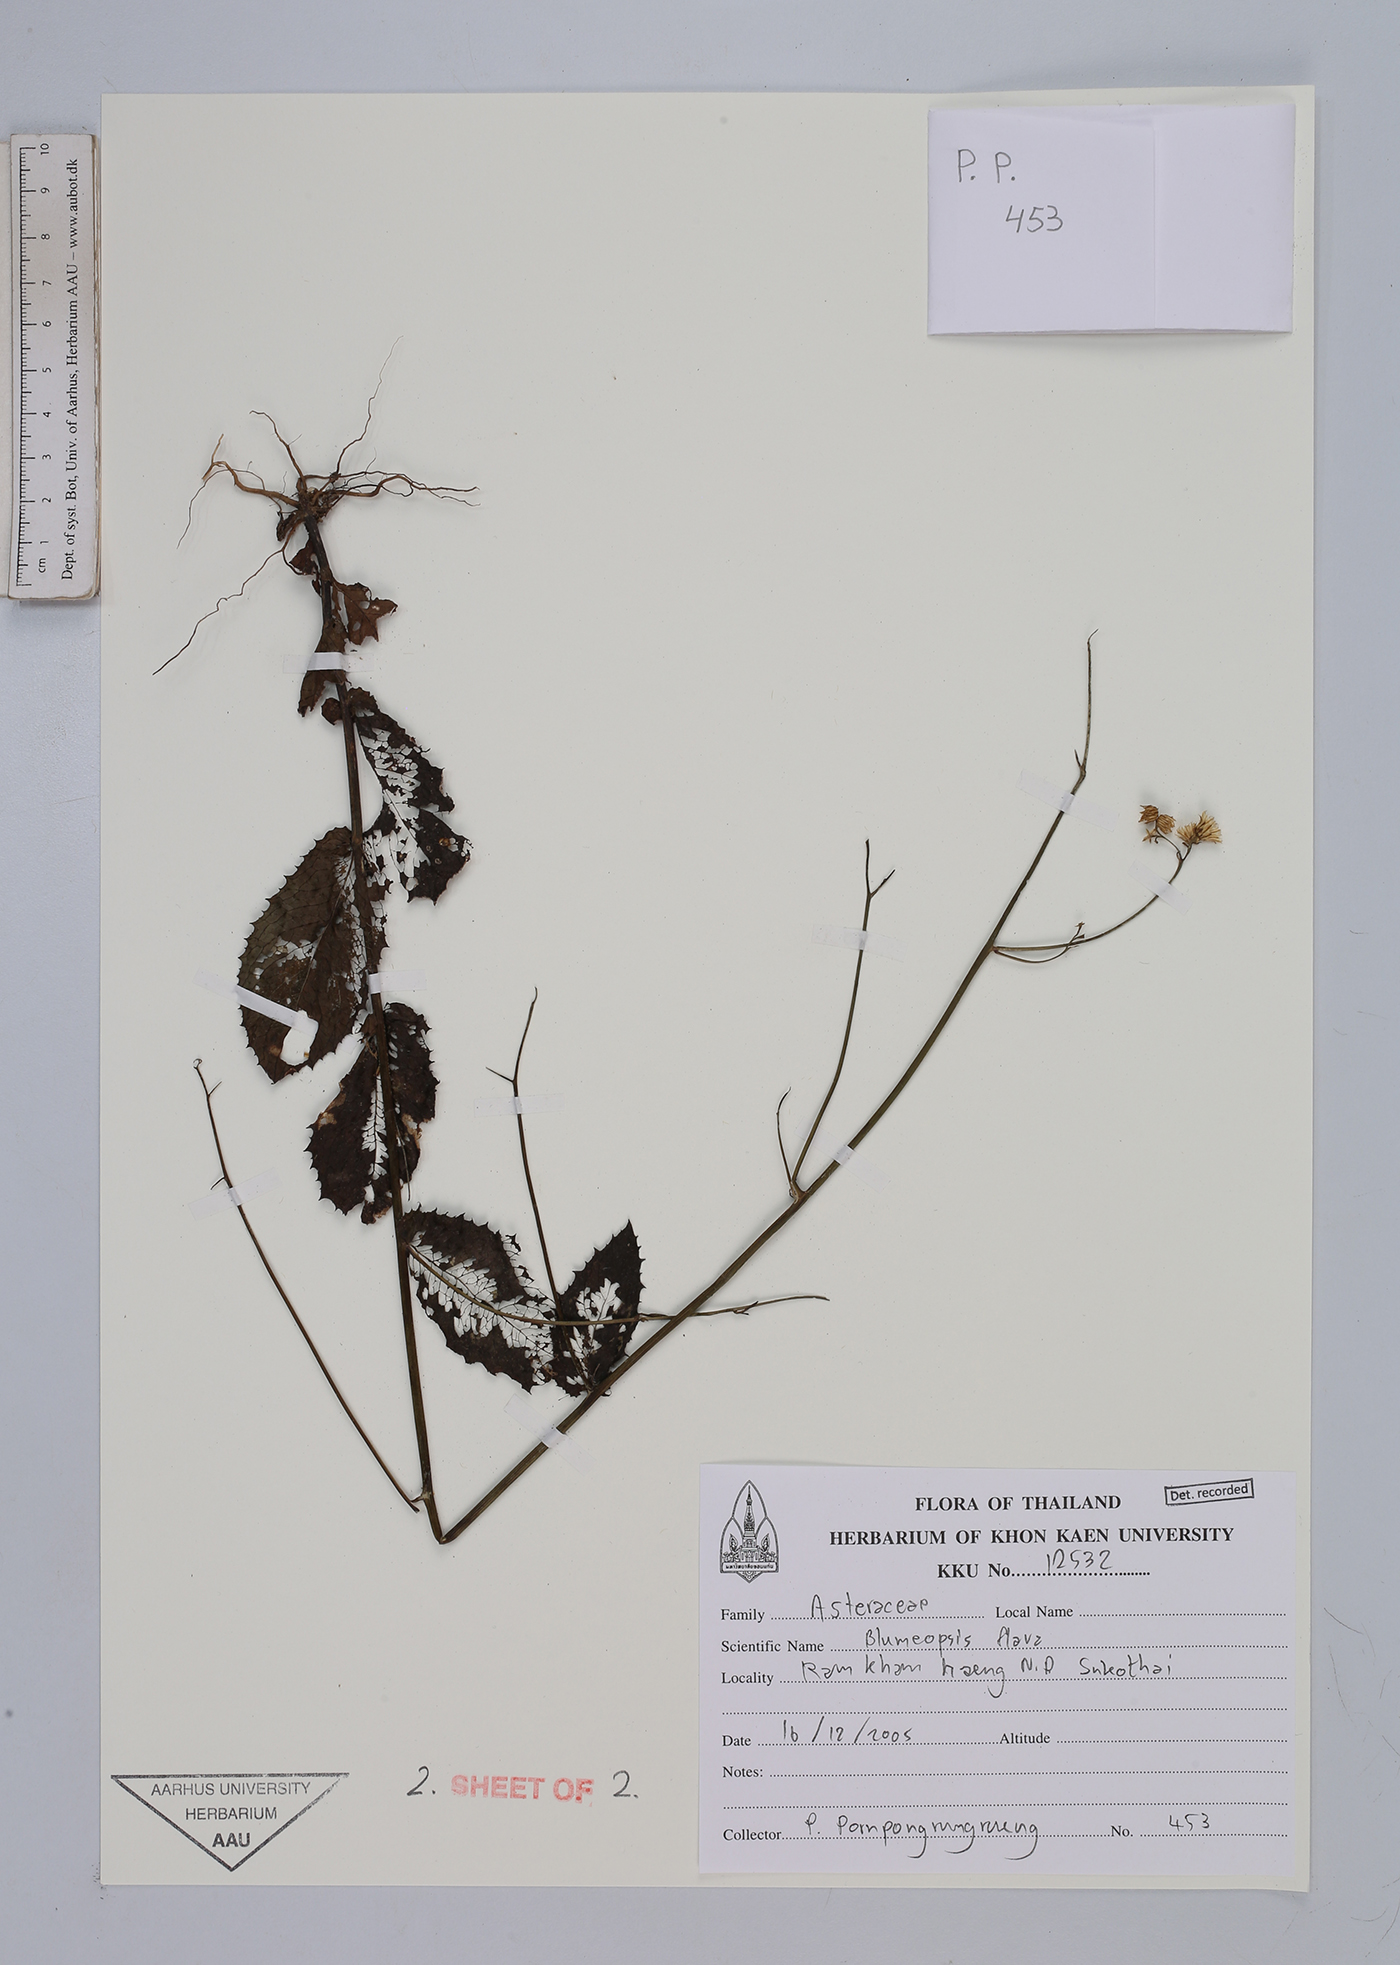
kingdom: Plantae
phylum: Tracheophyta
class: Magnoliopsida
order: Asterales
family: Asteraceae
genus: Blumeopsis
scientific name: Blumeopsis flava
